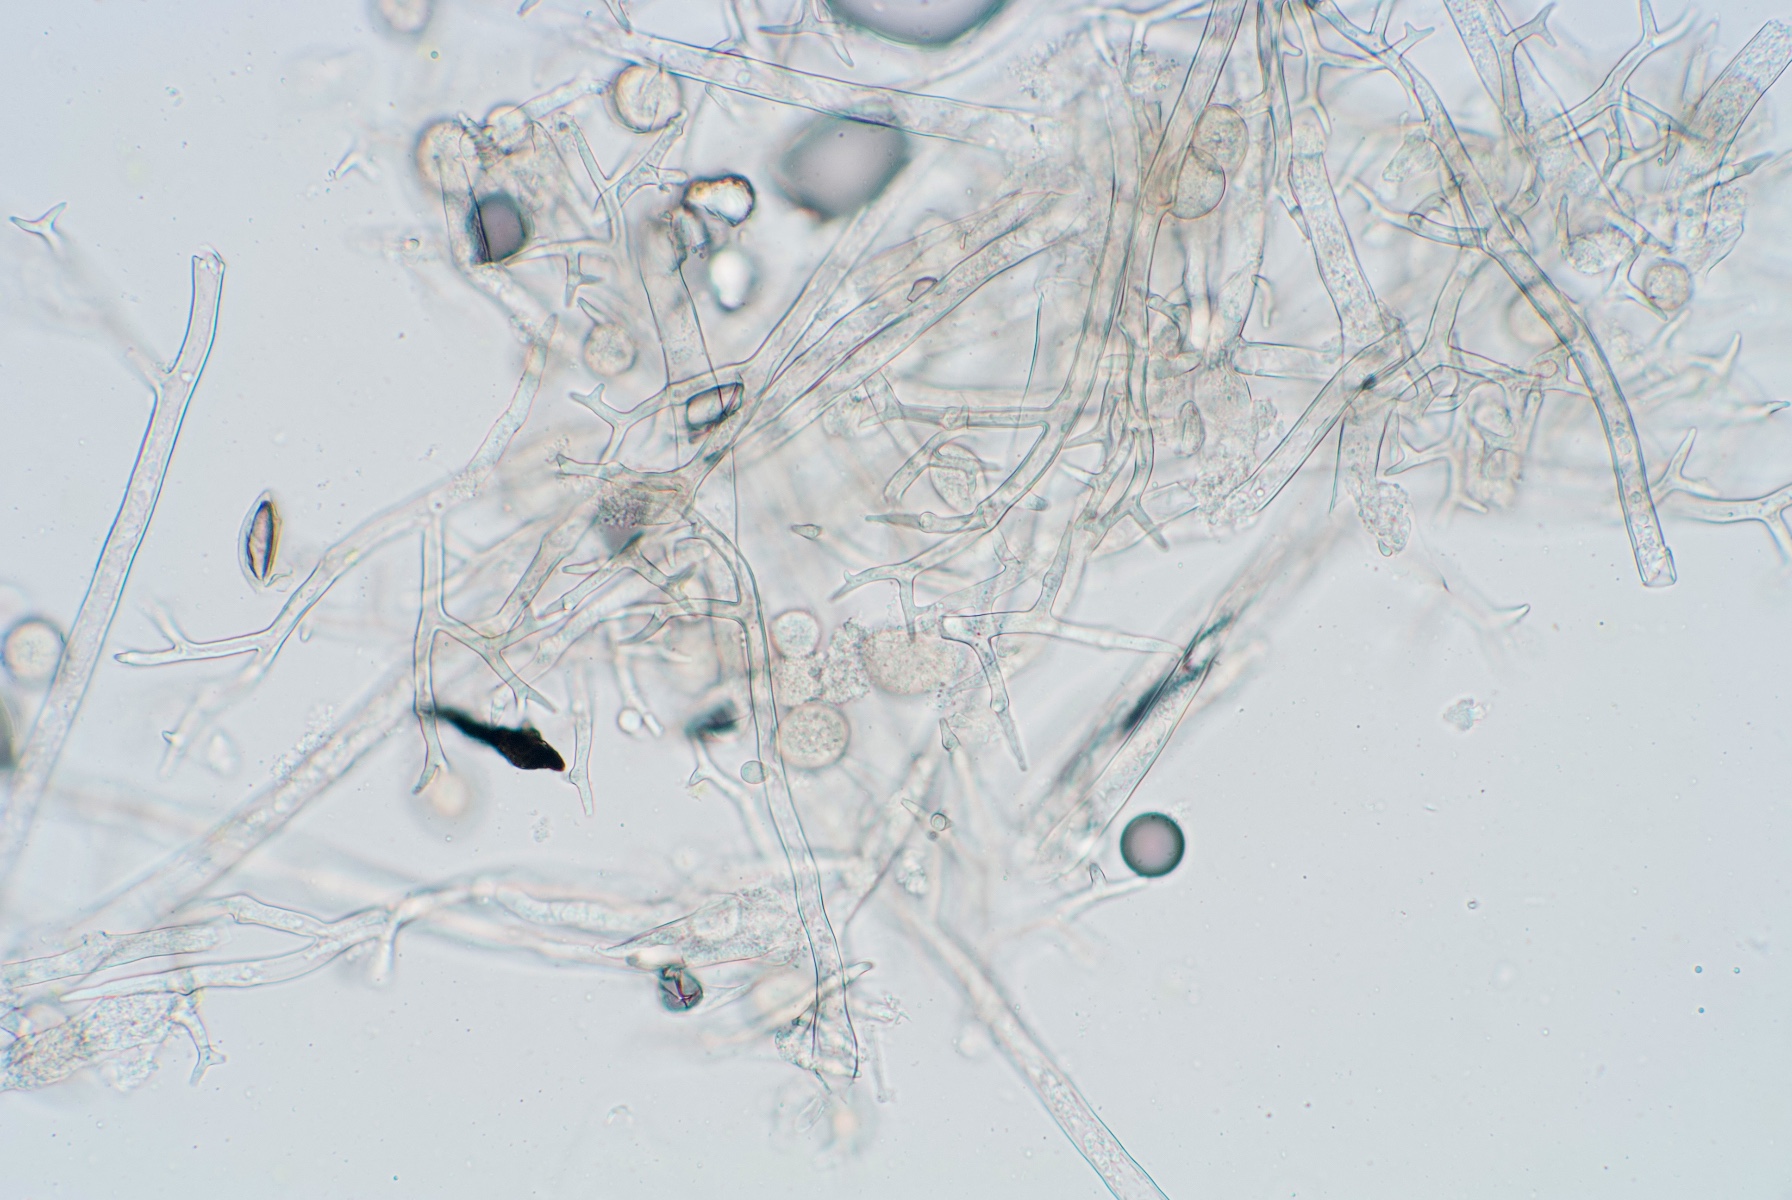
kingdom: Chromista
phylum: Oomycota
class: Peronosporea
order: Peronosporales
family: Peronosporaceae
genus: Peronospora
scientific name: Peronospora farinosa
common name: Beet downy mildew
